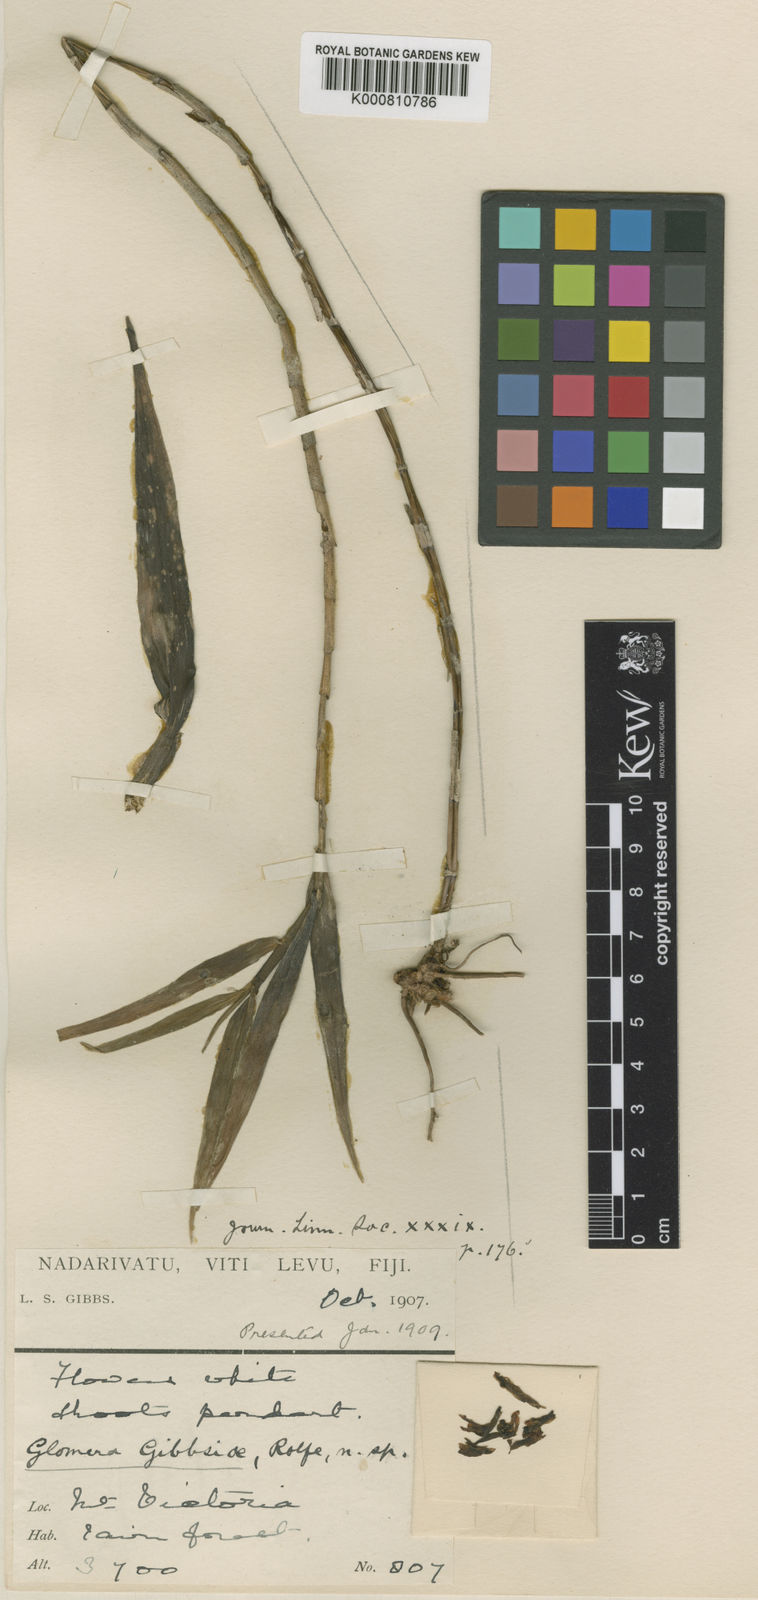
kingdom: Plantae
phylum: Tracheophyta
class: Liliopsida
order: Asparagales
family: Orchidaceae
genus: Glomera
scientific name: Glomera montana
